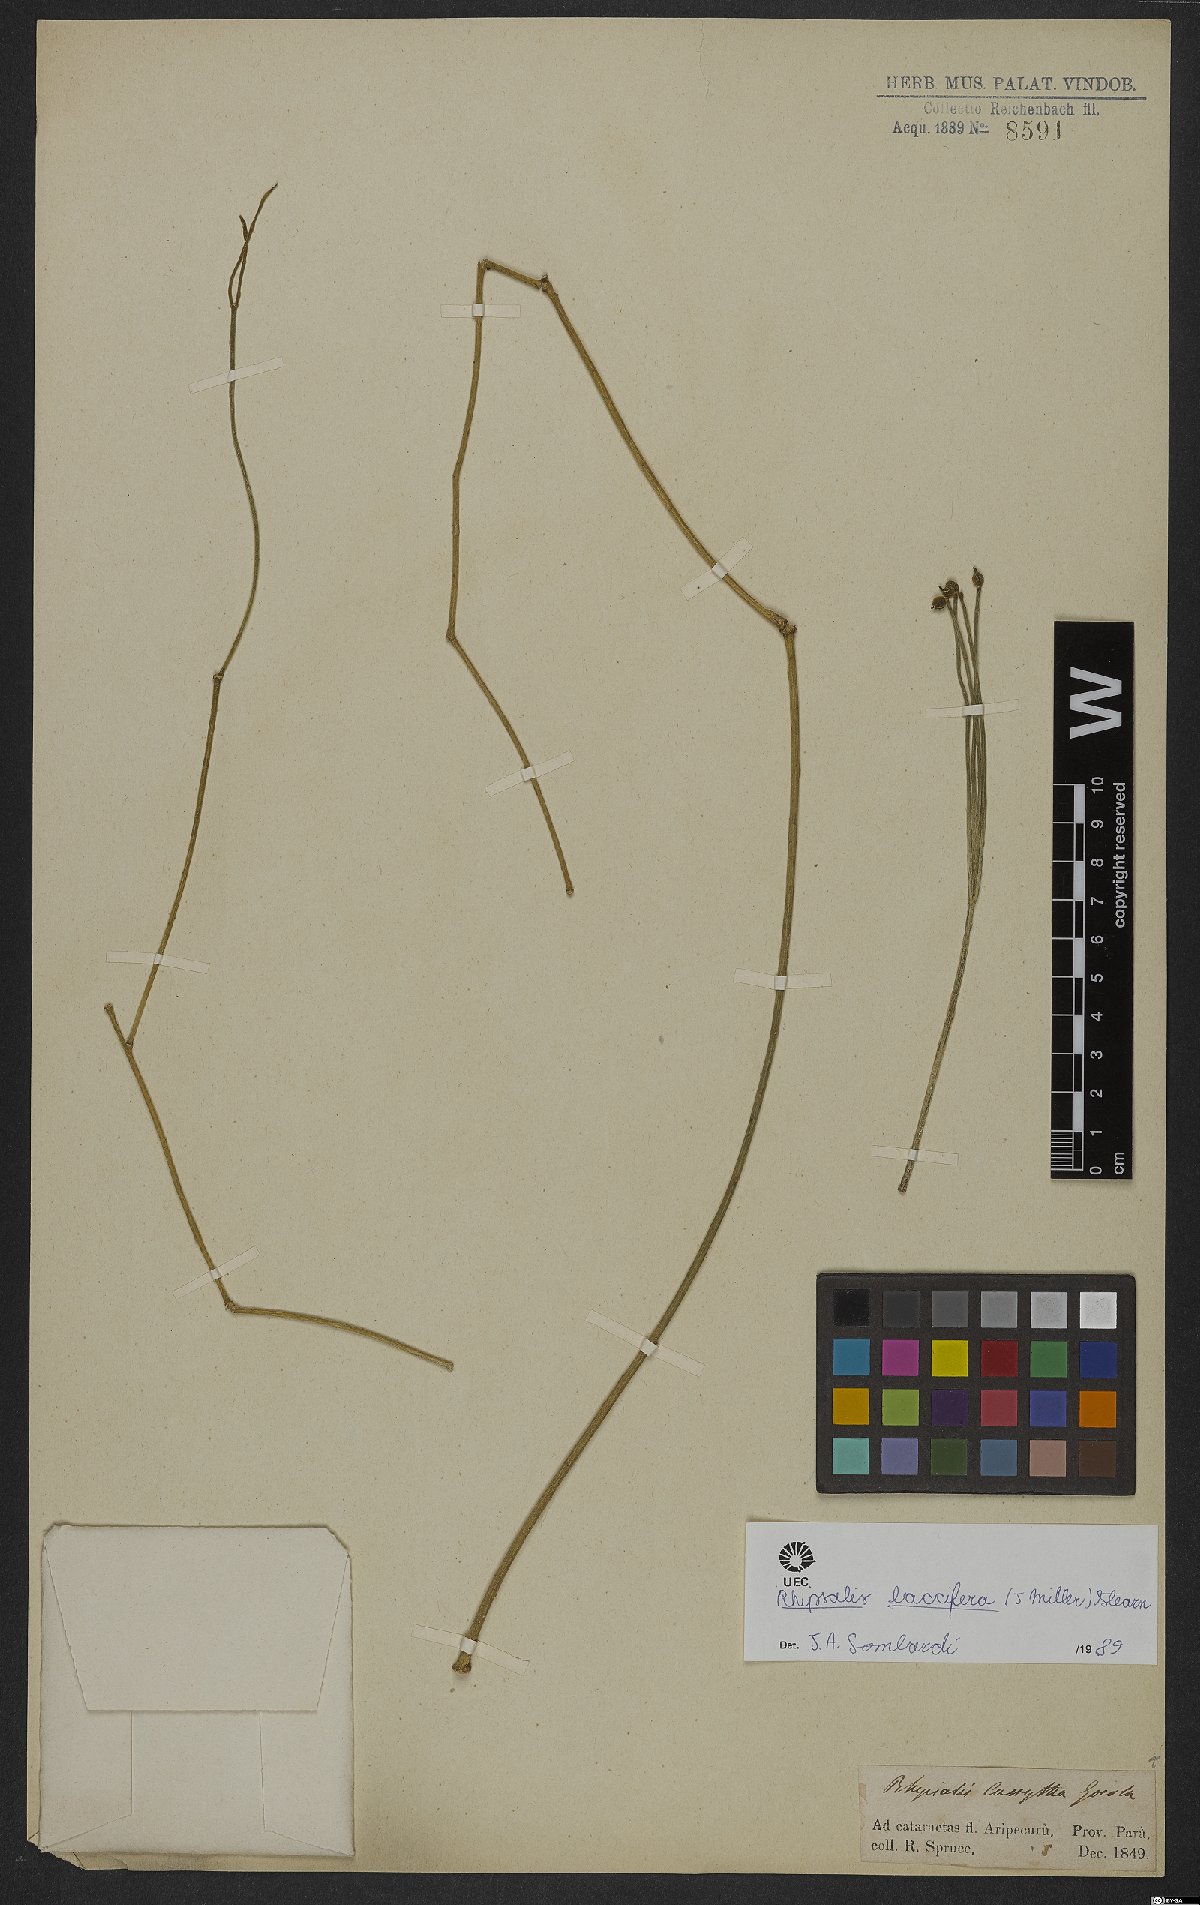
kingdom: Plantae
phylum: Tracheophyta
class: Magnoliopsida
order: Caryophyllales
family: Cactaceae
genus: Rhipsalis
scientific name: Rhipsalis baccifera
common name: Mistletoe cactus
